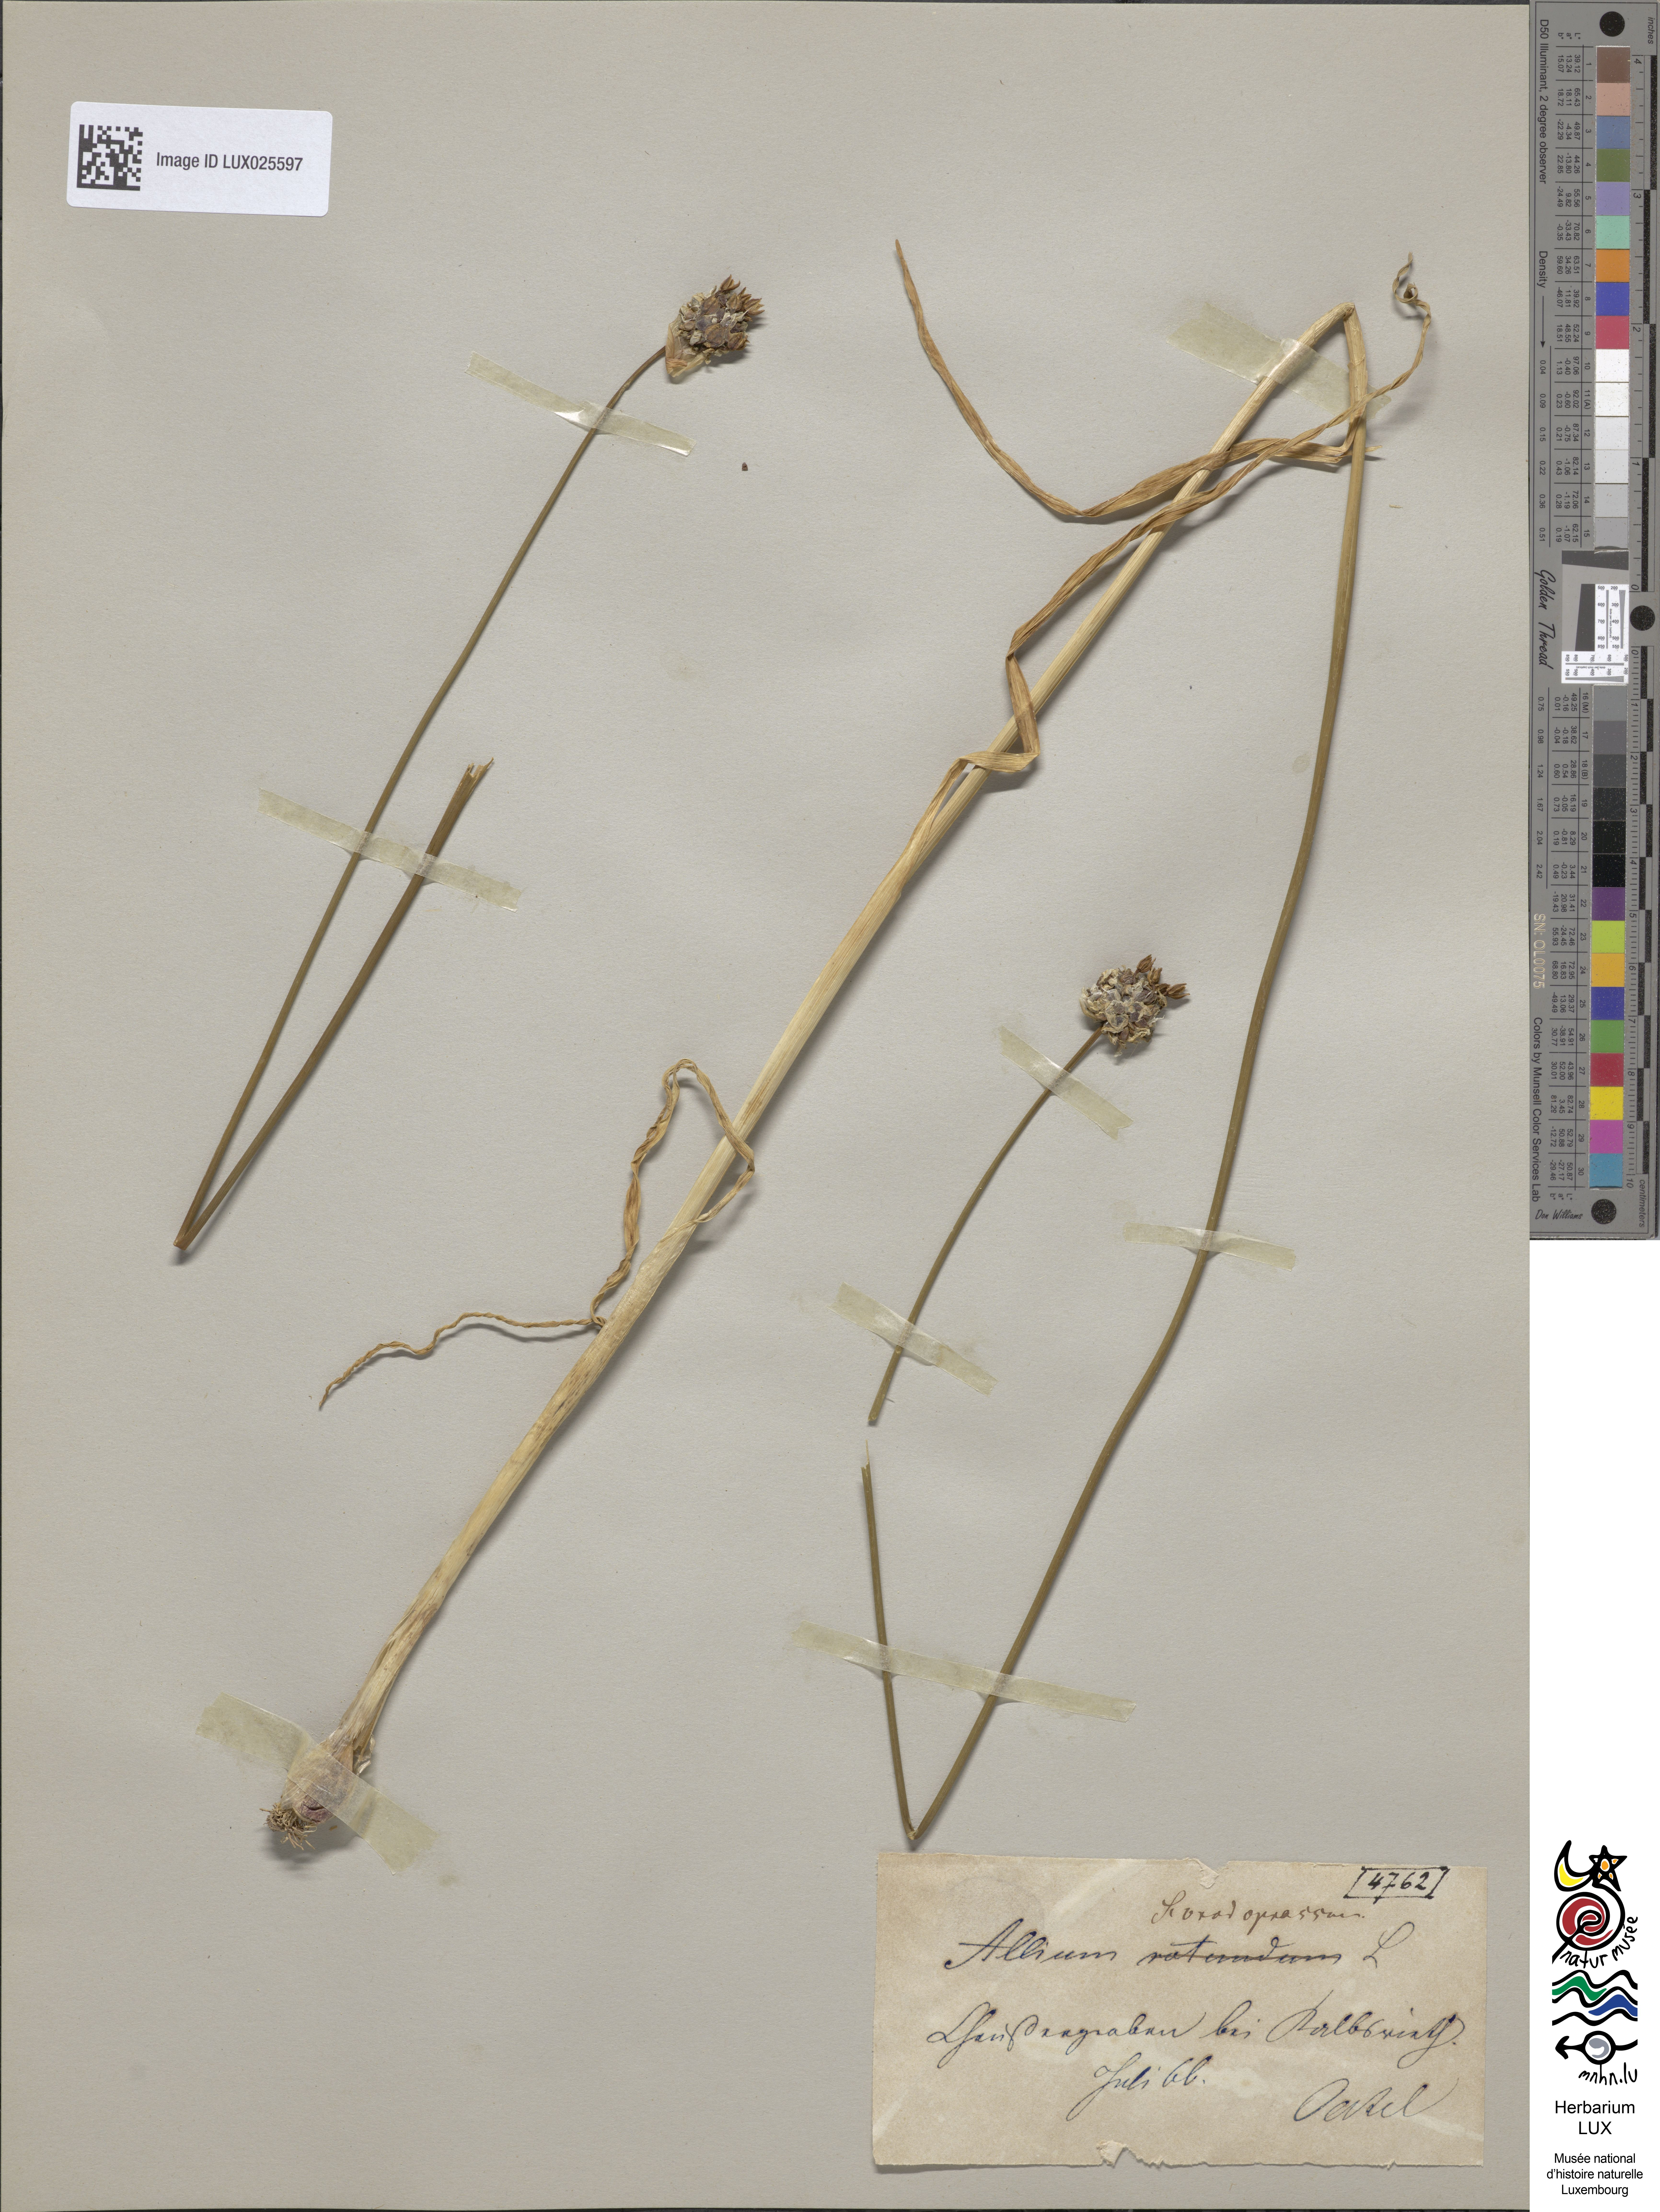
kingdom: Plantae
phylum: Tracheophyta
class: Liliopsida
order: Asparagales
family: Amaryllidaceae
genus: Allium
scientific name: Allium scorodoprasum
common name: Sand leek
